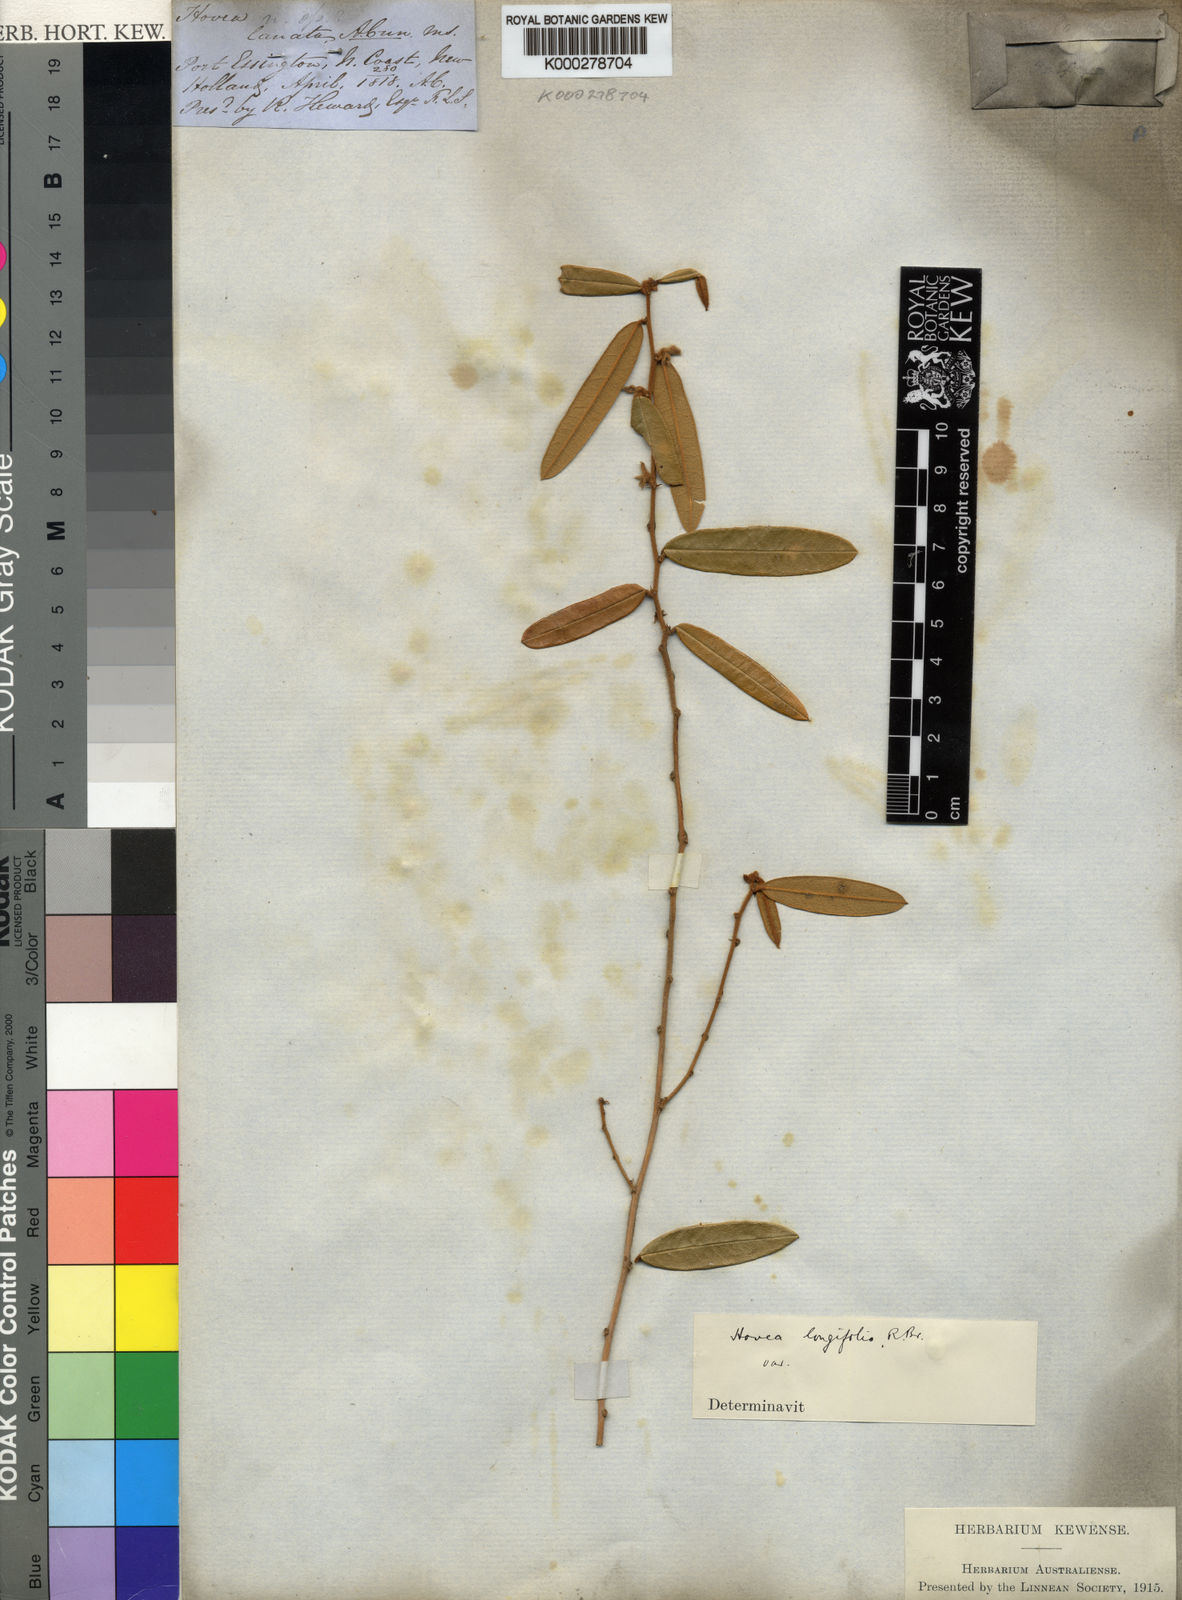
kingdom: Plantae
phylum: Tracheophyta
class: Magnoliopsida
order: Fabales
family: Fabaceae
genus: Hovea
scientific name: Hovea longifolia
